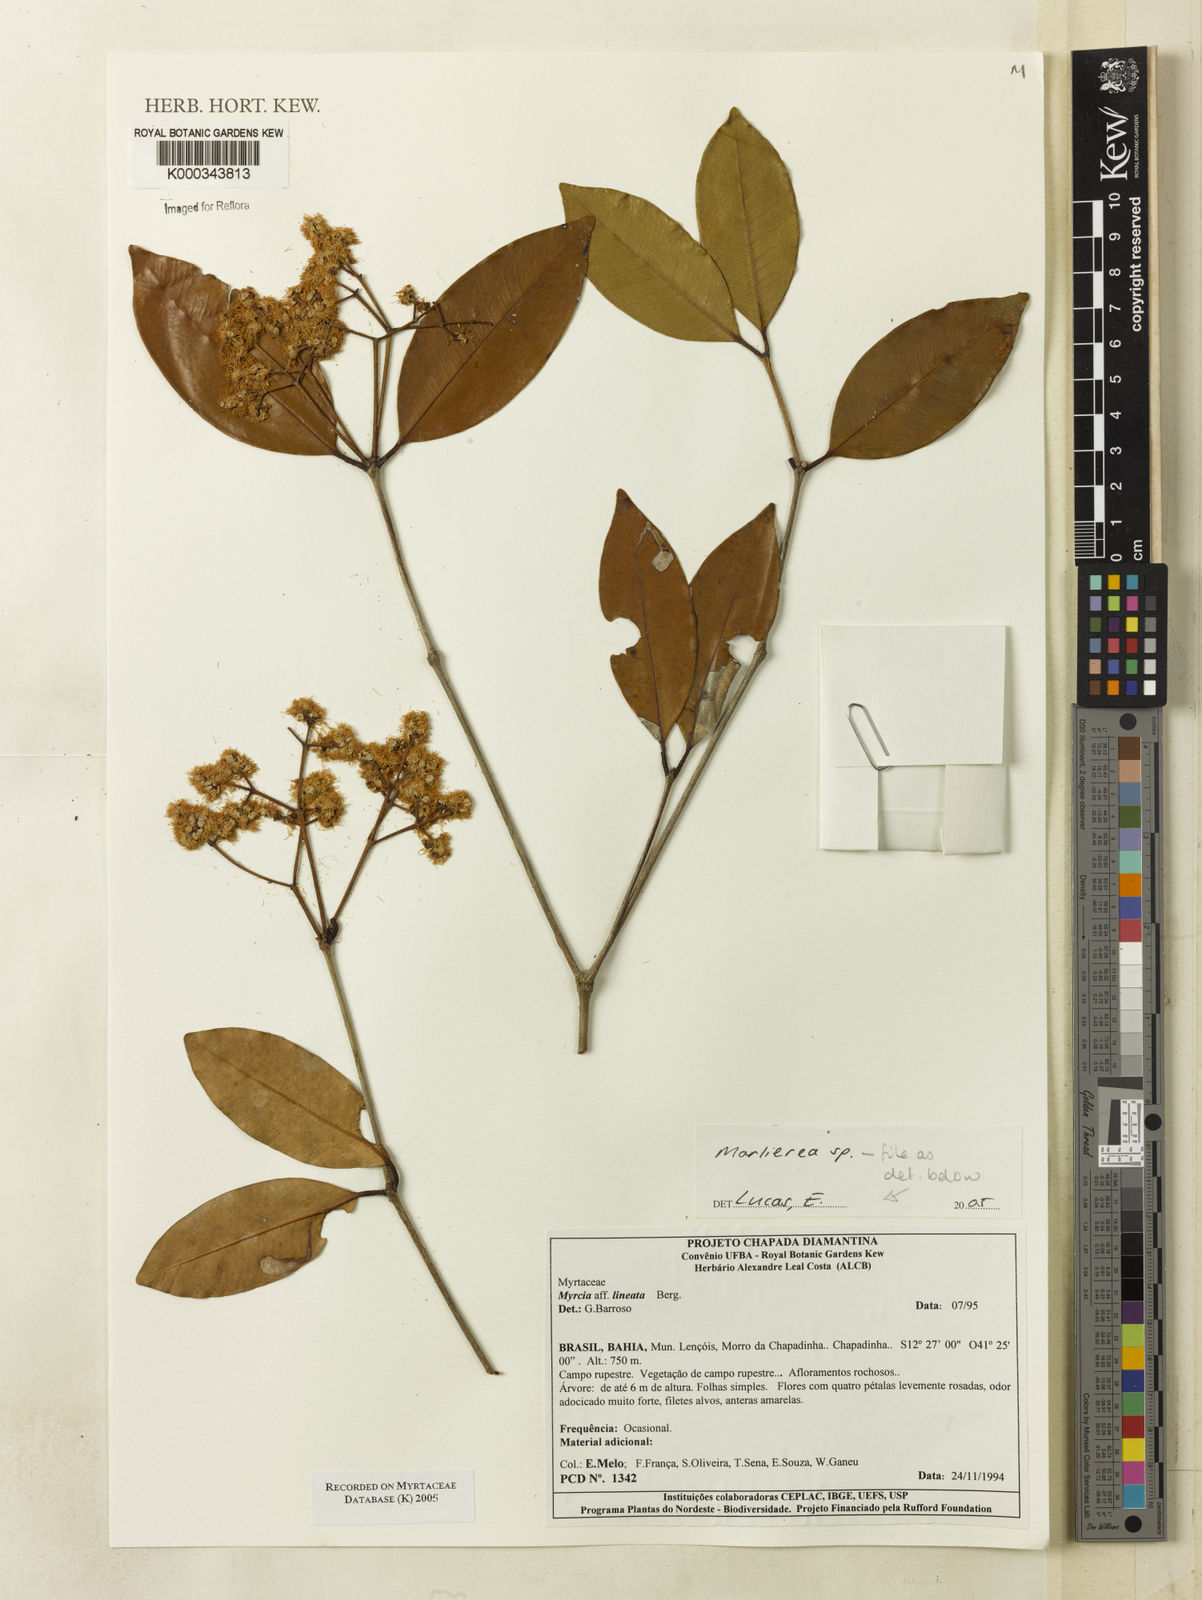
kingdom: Plantae
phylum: Tracheophyta
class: Magnoliopsida
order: Myrtales
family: Myrtaceae
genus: Marlierea
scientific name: Marlierea
